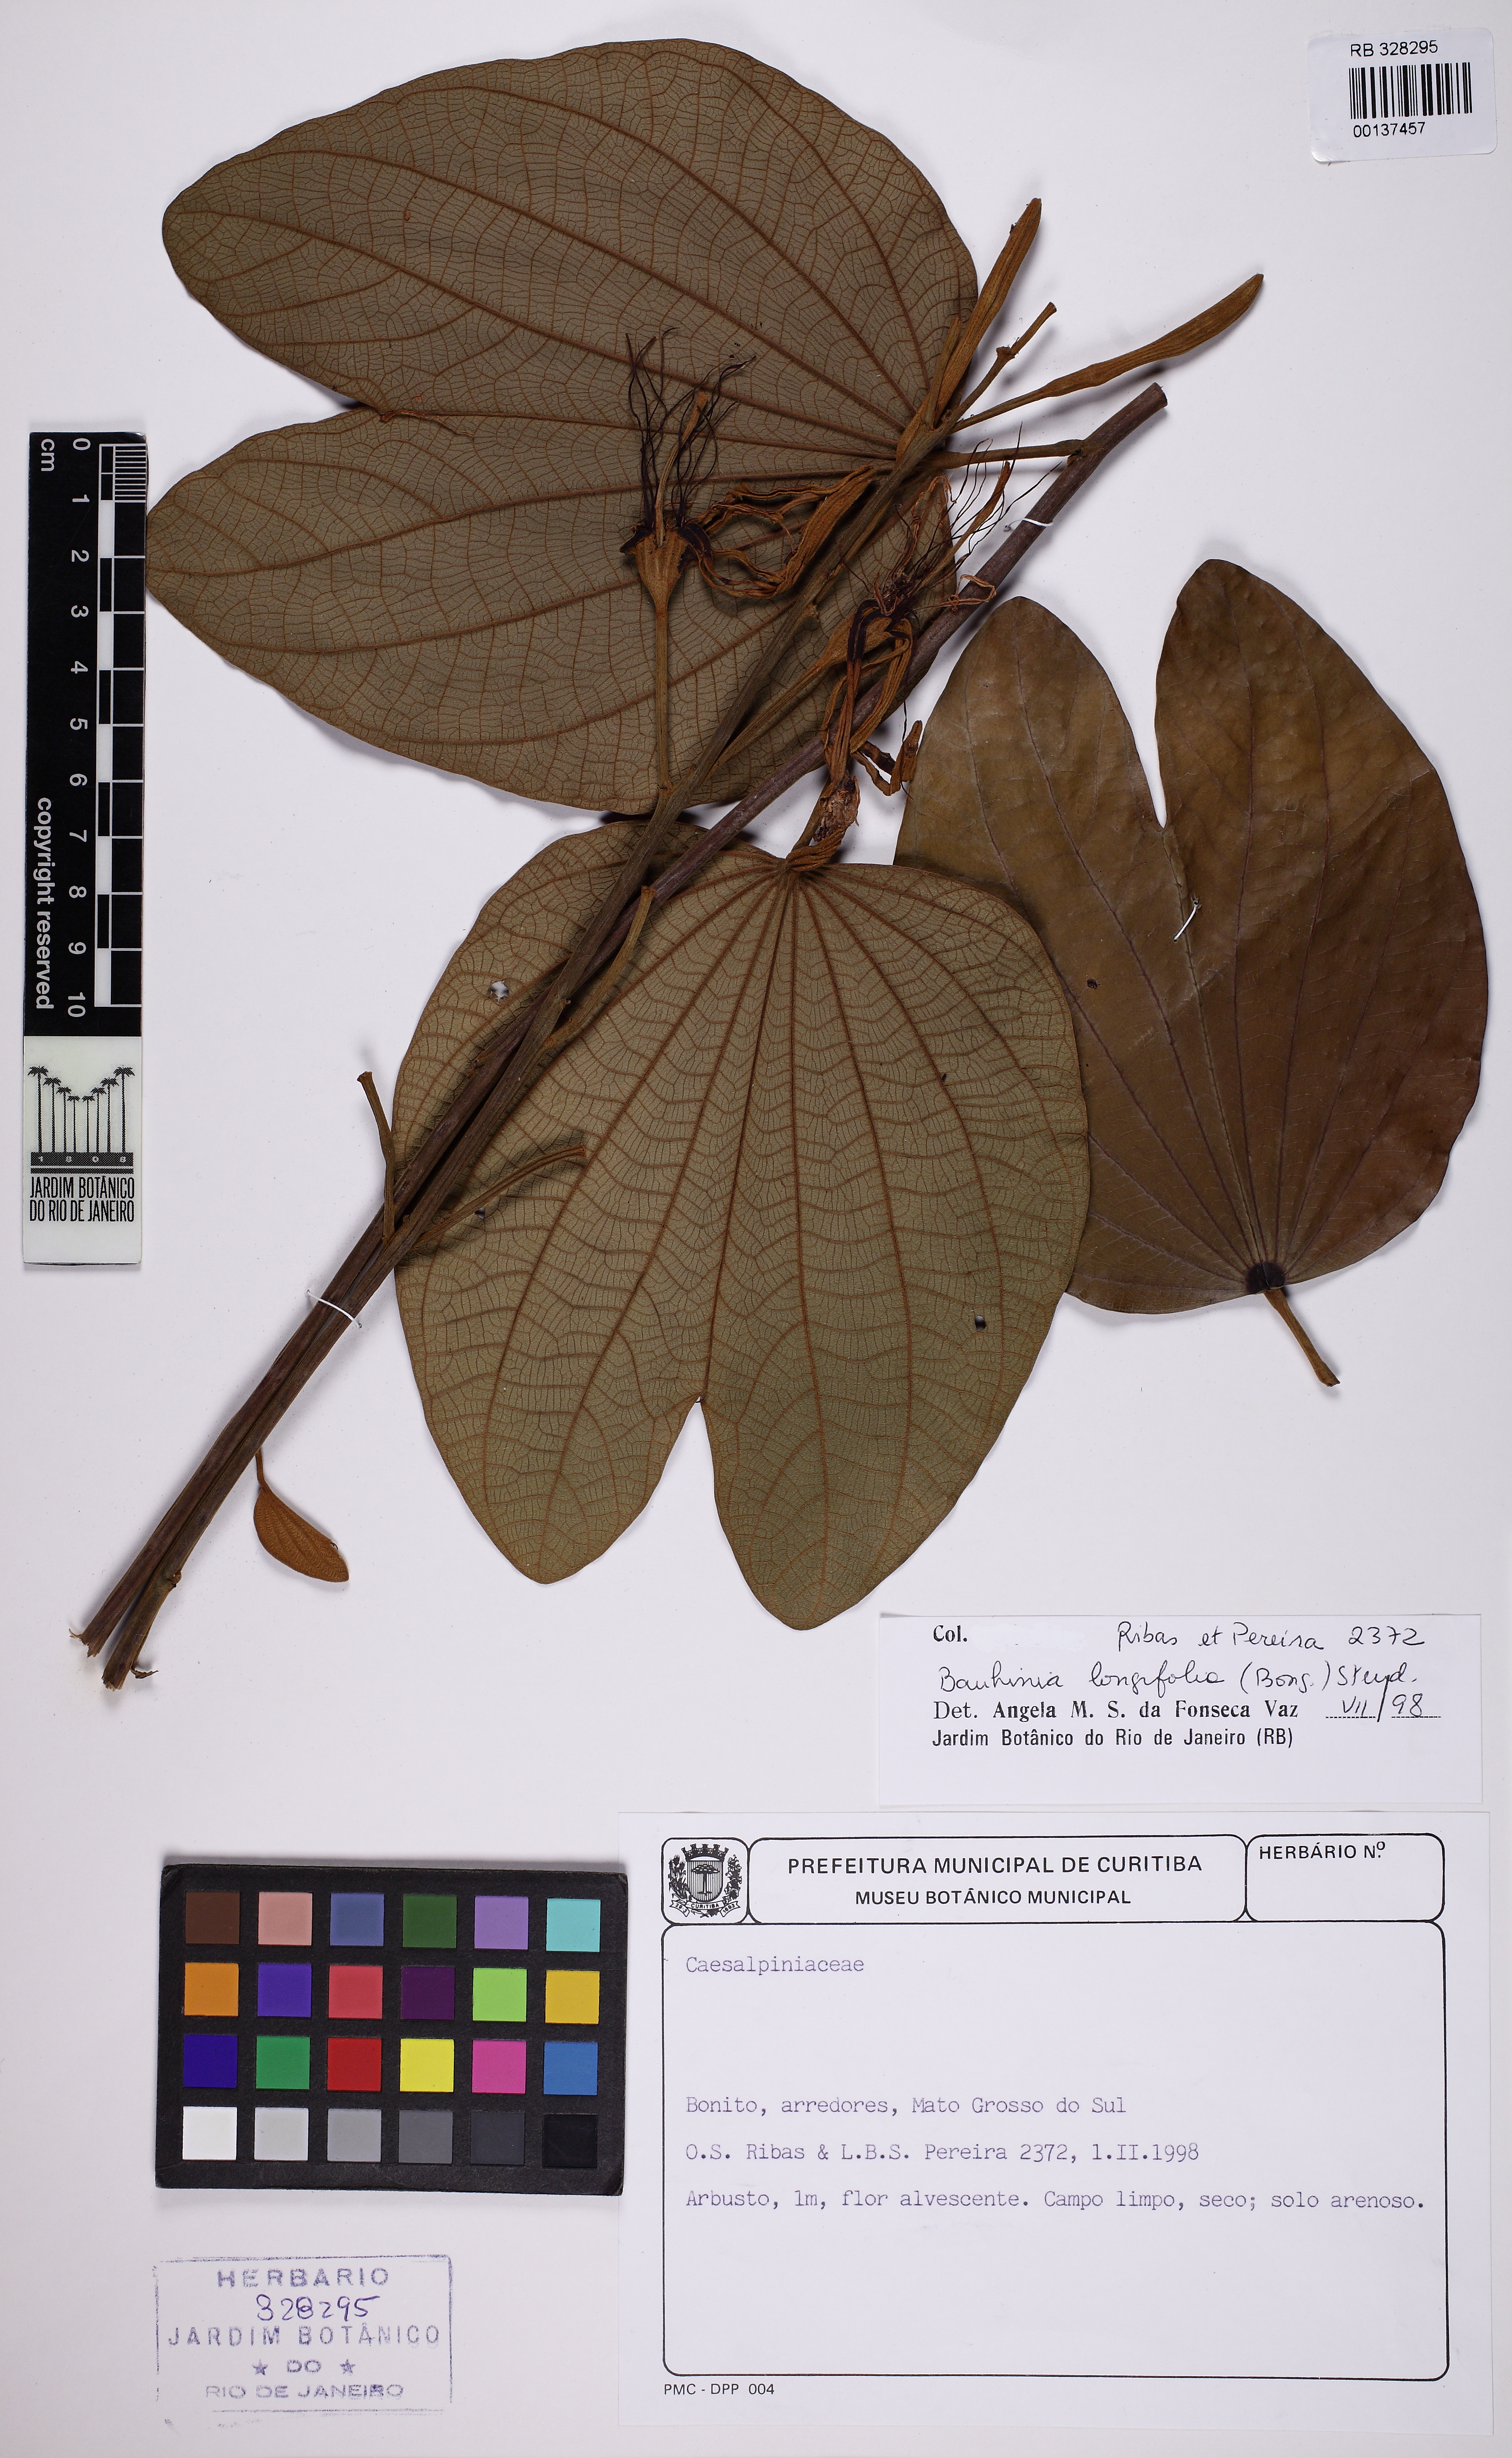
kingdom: Plantae
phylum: Tracheophyta
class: Magnoliopsida
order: Fabales
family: Fabaceae
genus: Bauhinia
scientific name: Bauhinia longifolia
